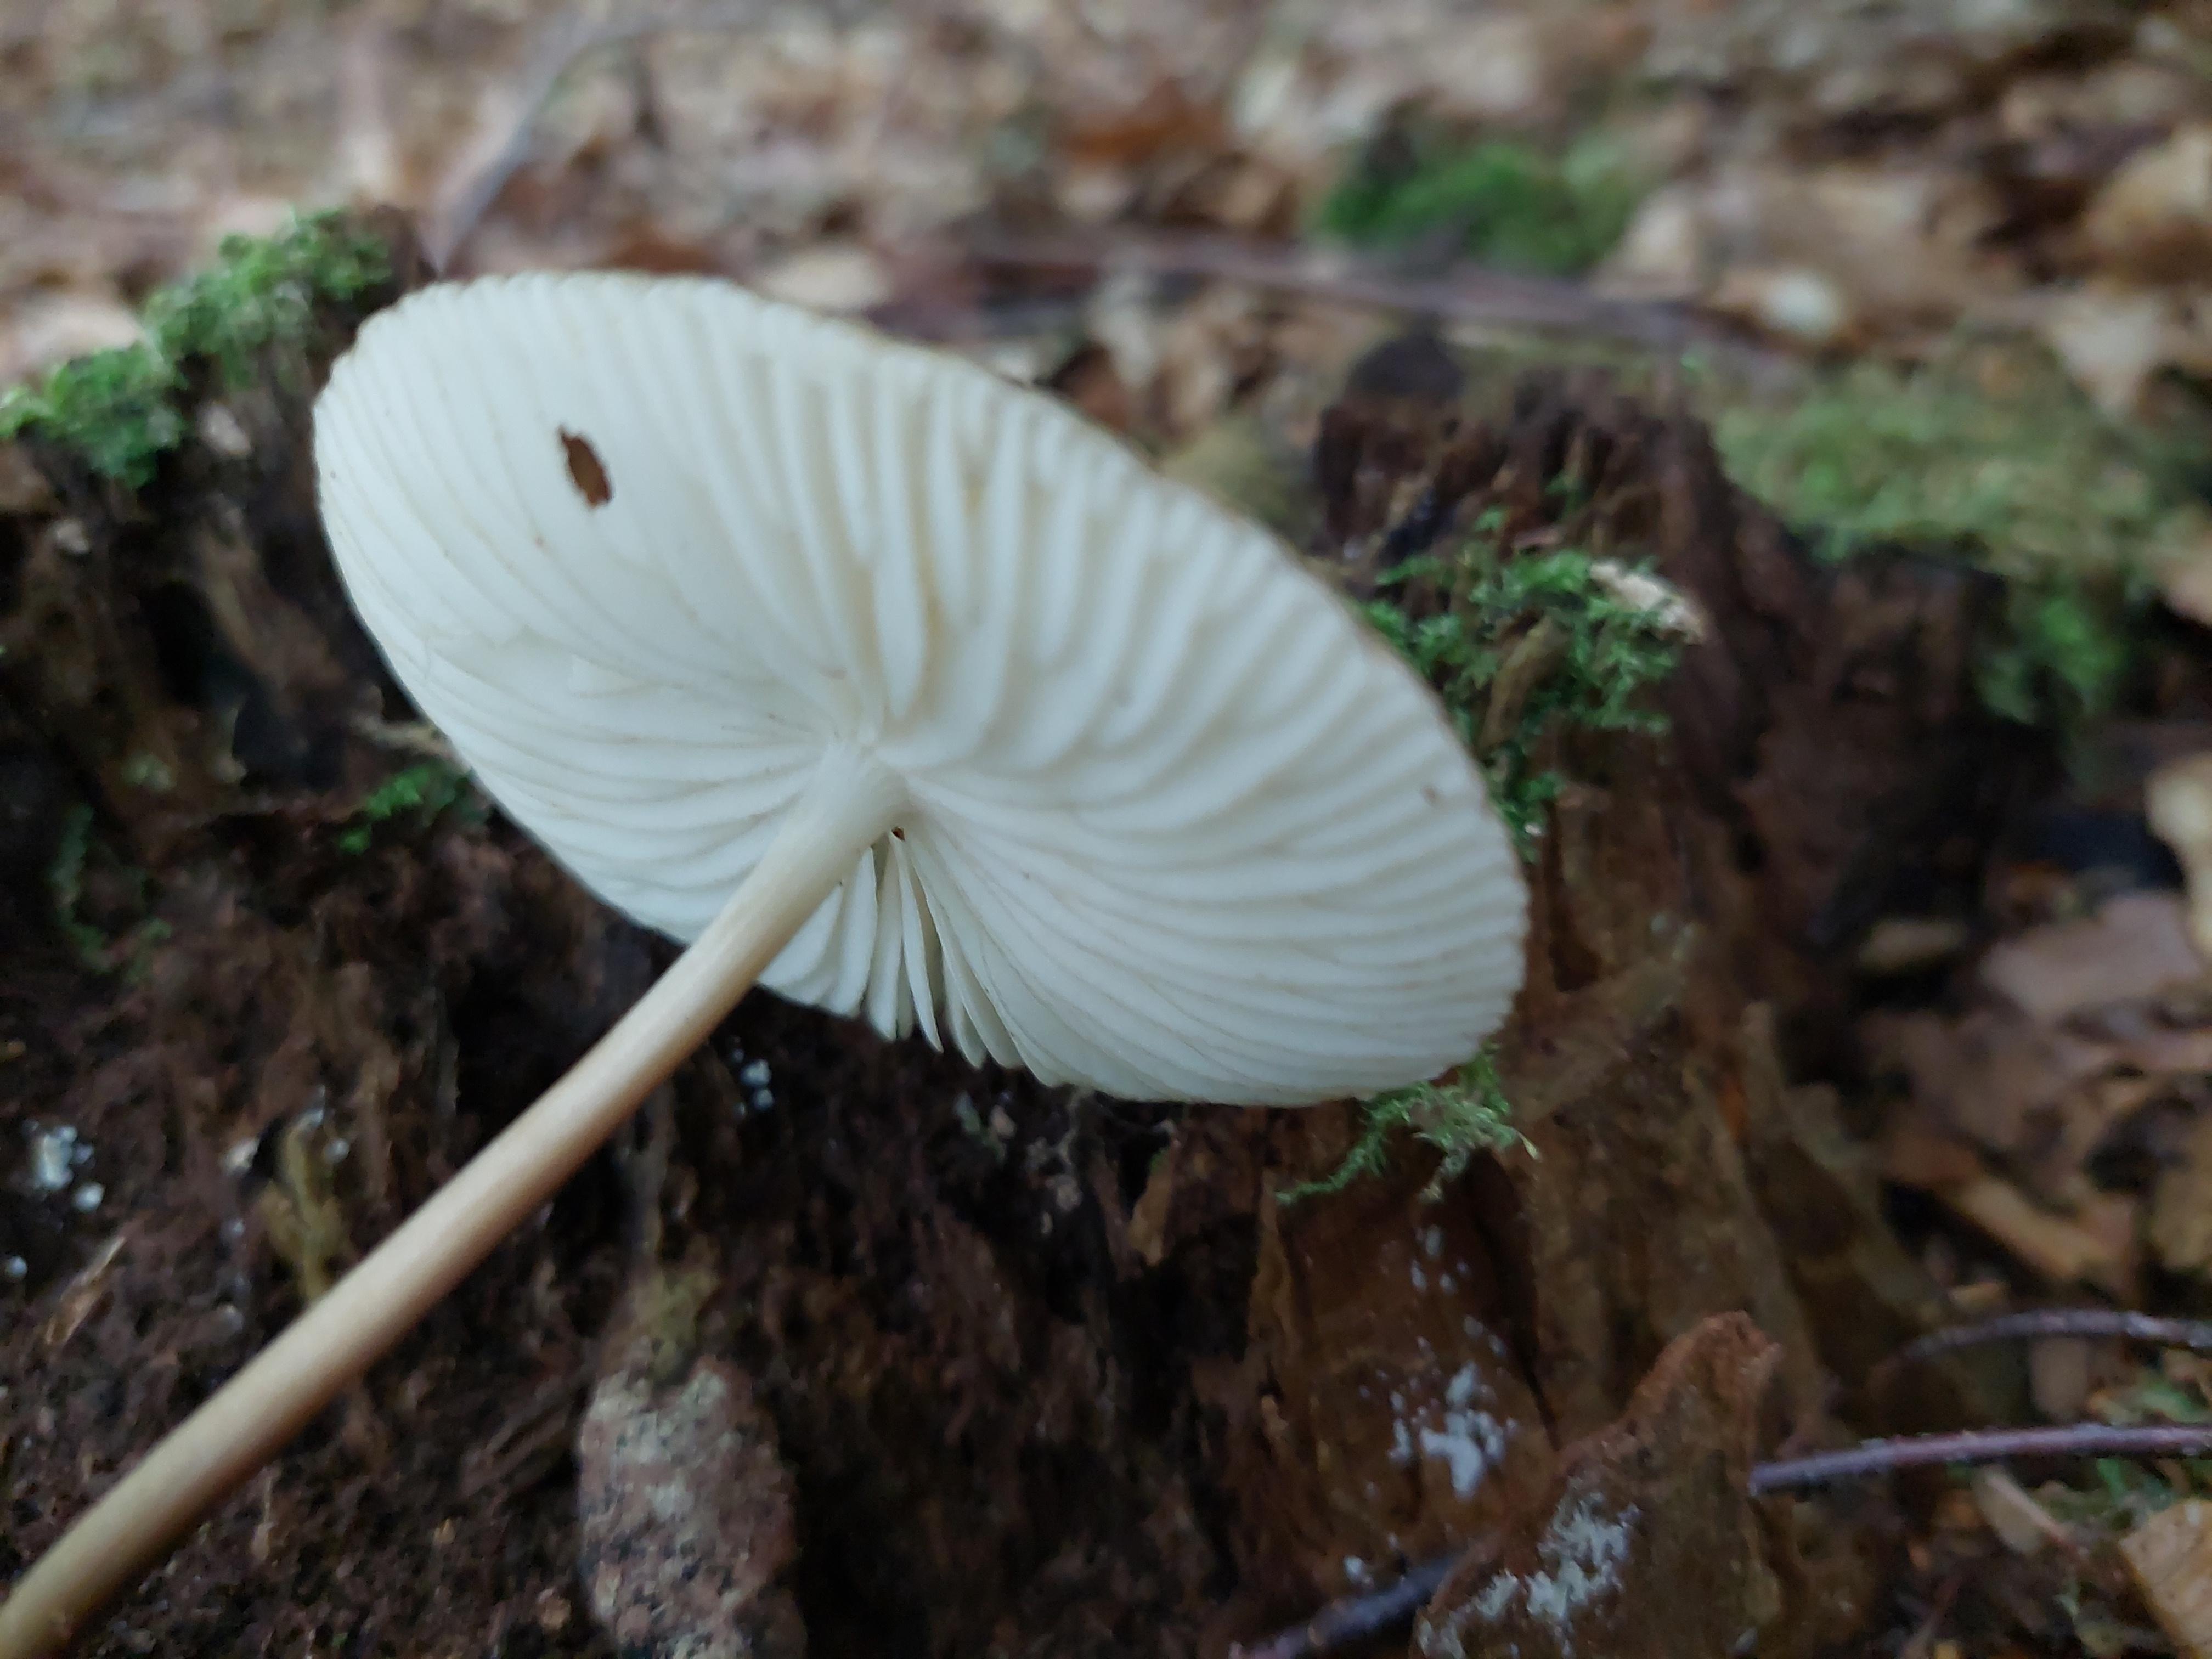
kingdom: Fungi
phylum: Basidiomycota
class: Agaricomycetes
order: Agaricales
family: Physalacriaceae
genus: Hymenopellis
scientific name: Hymenopellis radicata
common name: almindelig pælerodshat
